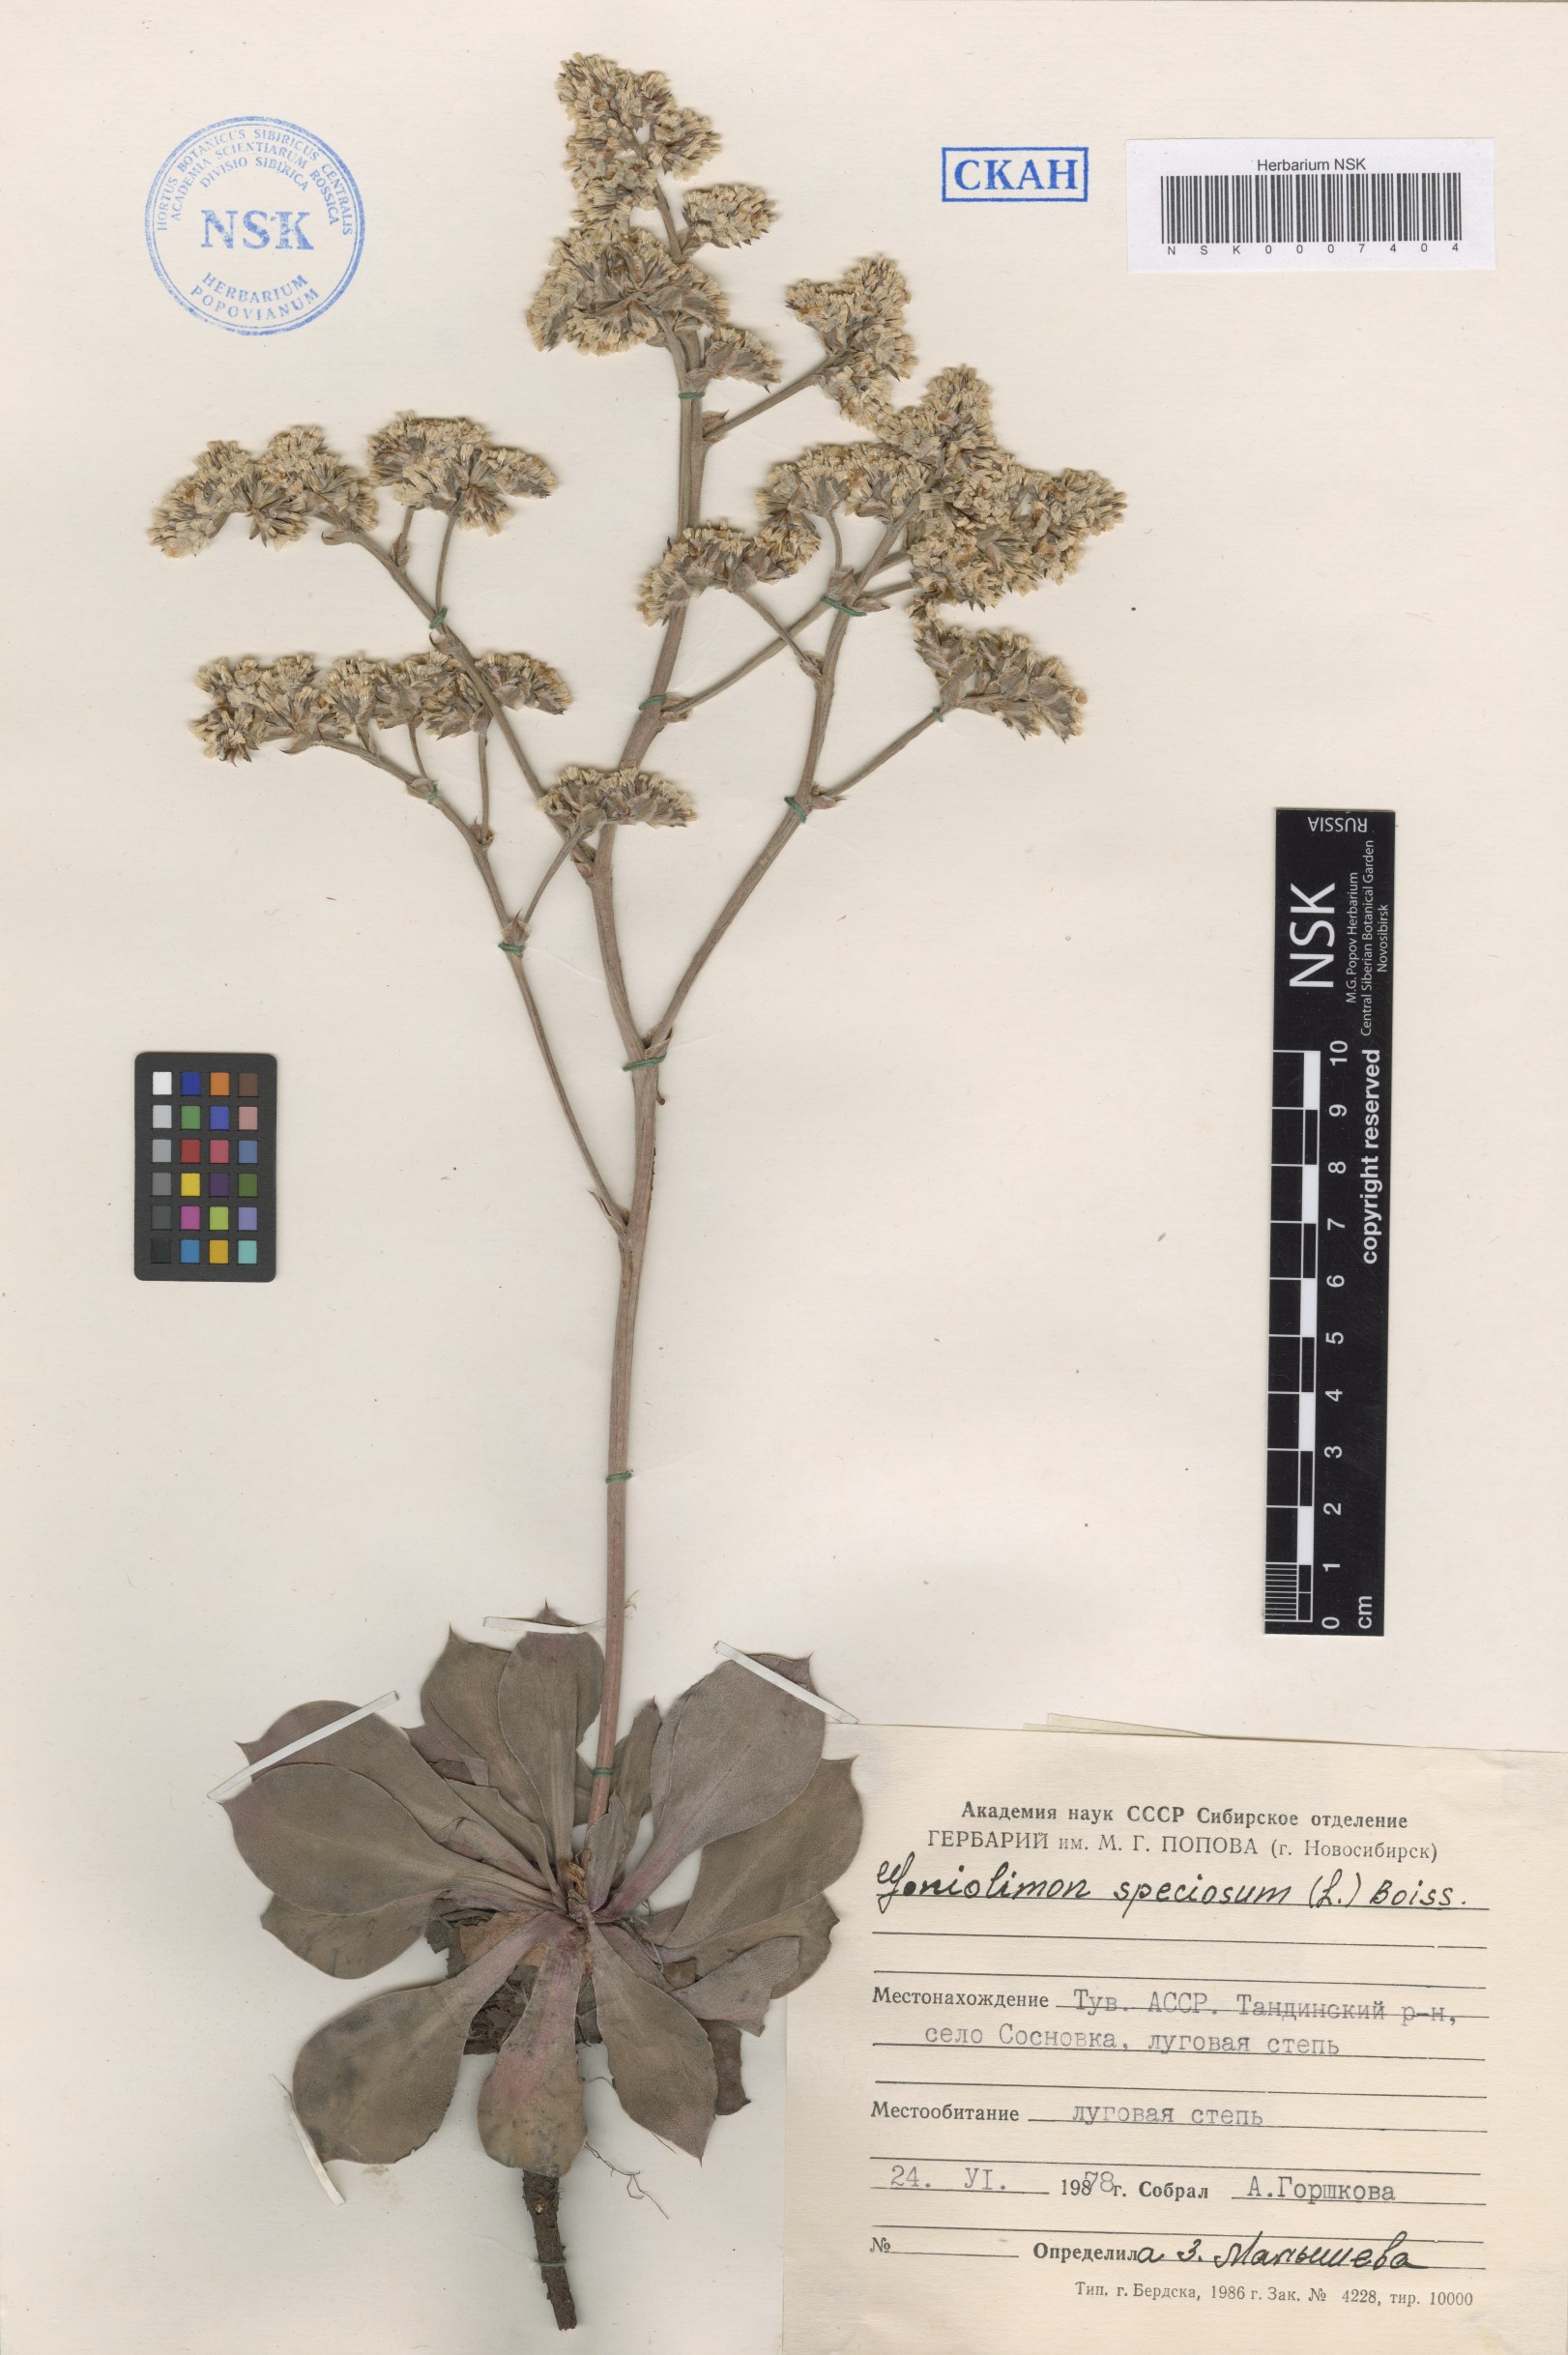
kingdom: Plantae
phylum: Tracheophyta
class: Magnoliopsida
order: Caryophyllales
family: Plumbaginaceae
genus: Goniolimon
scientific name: Goniolimon speciosum
